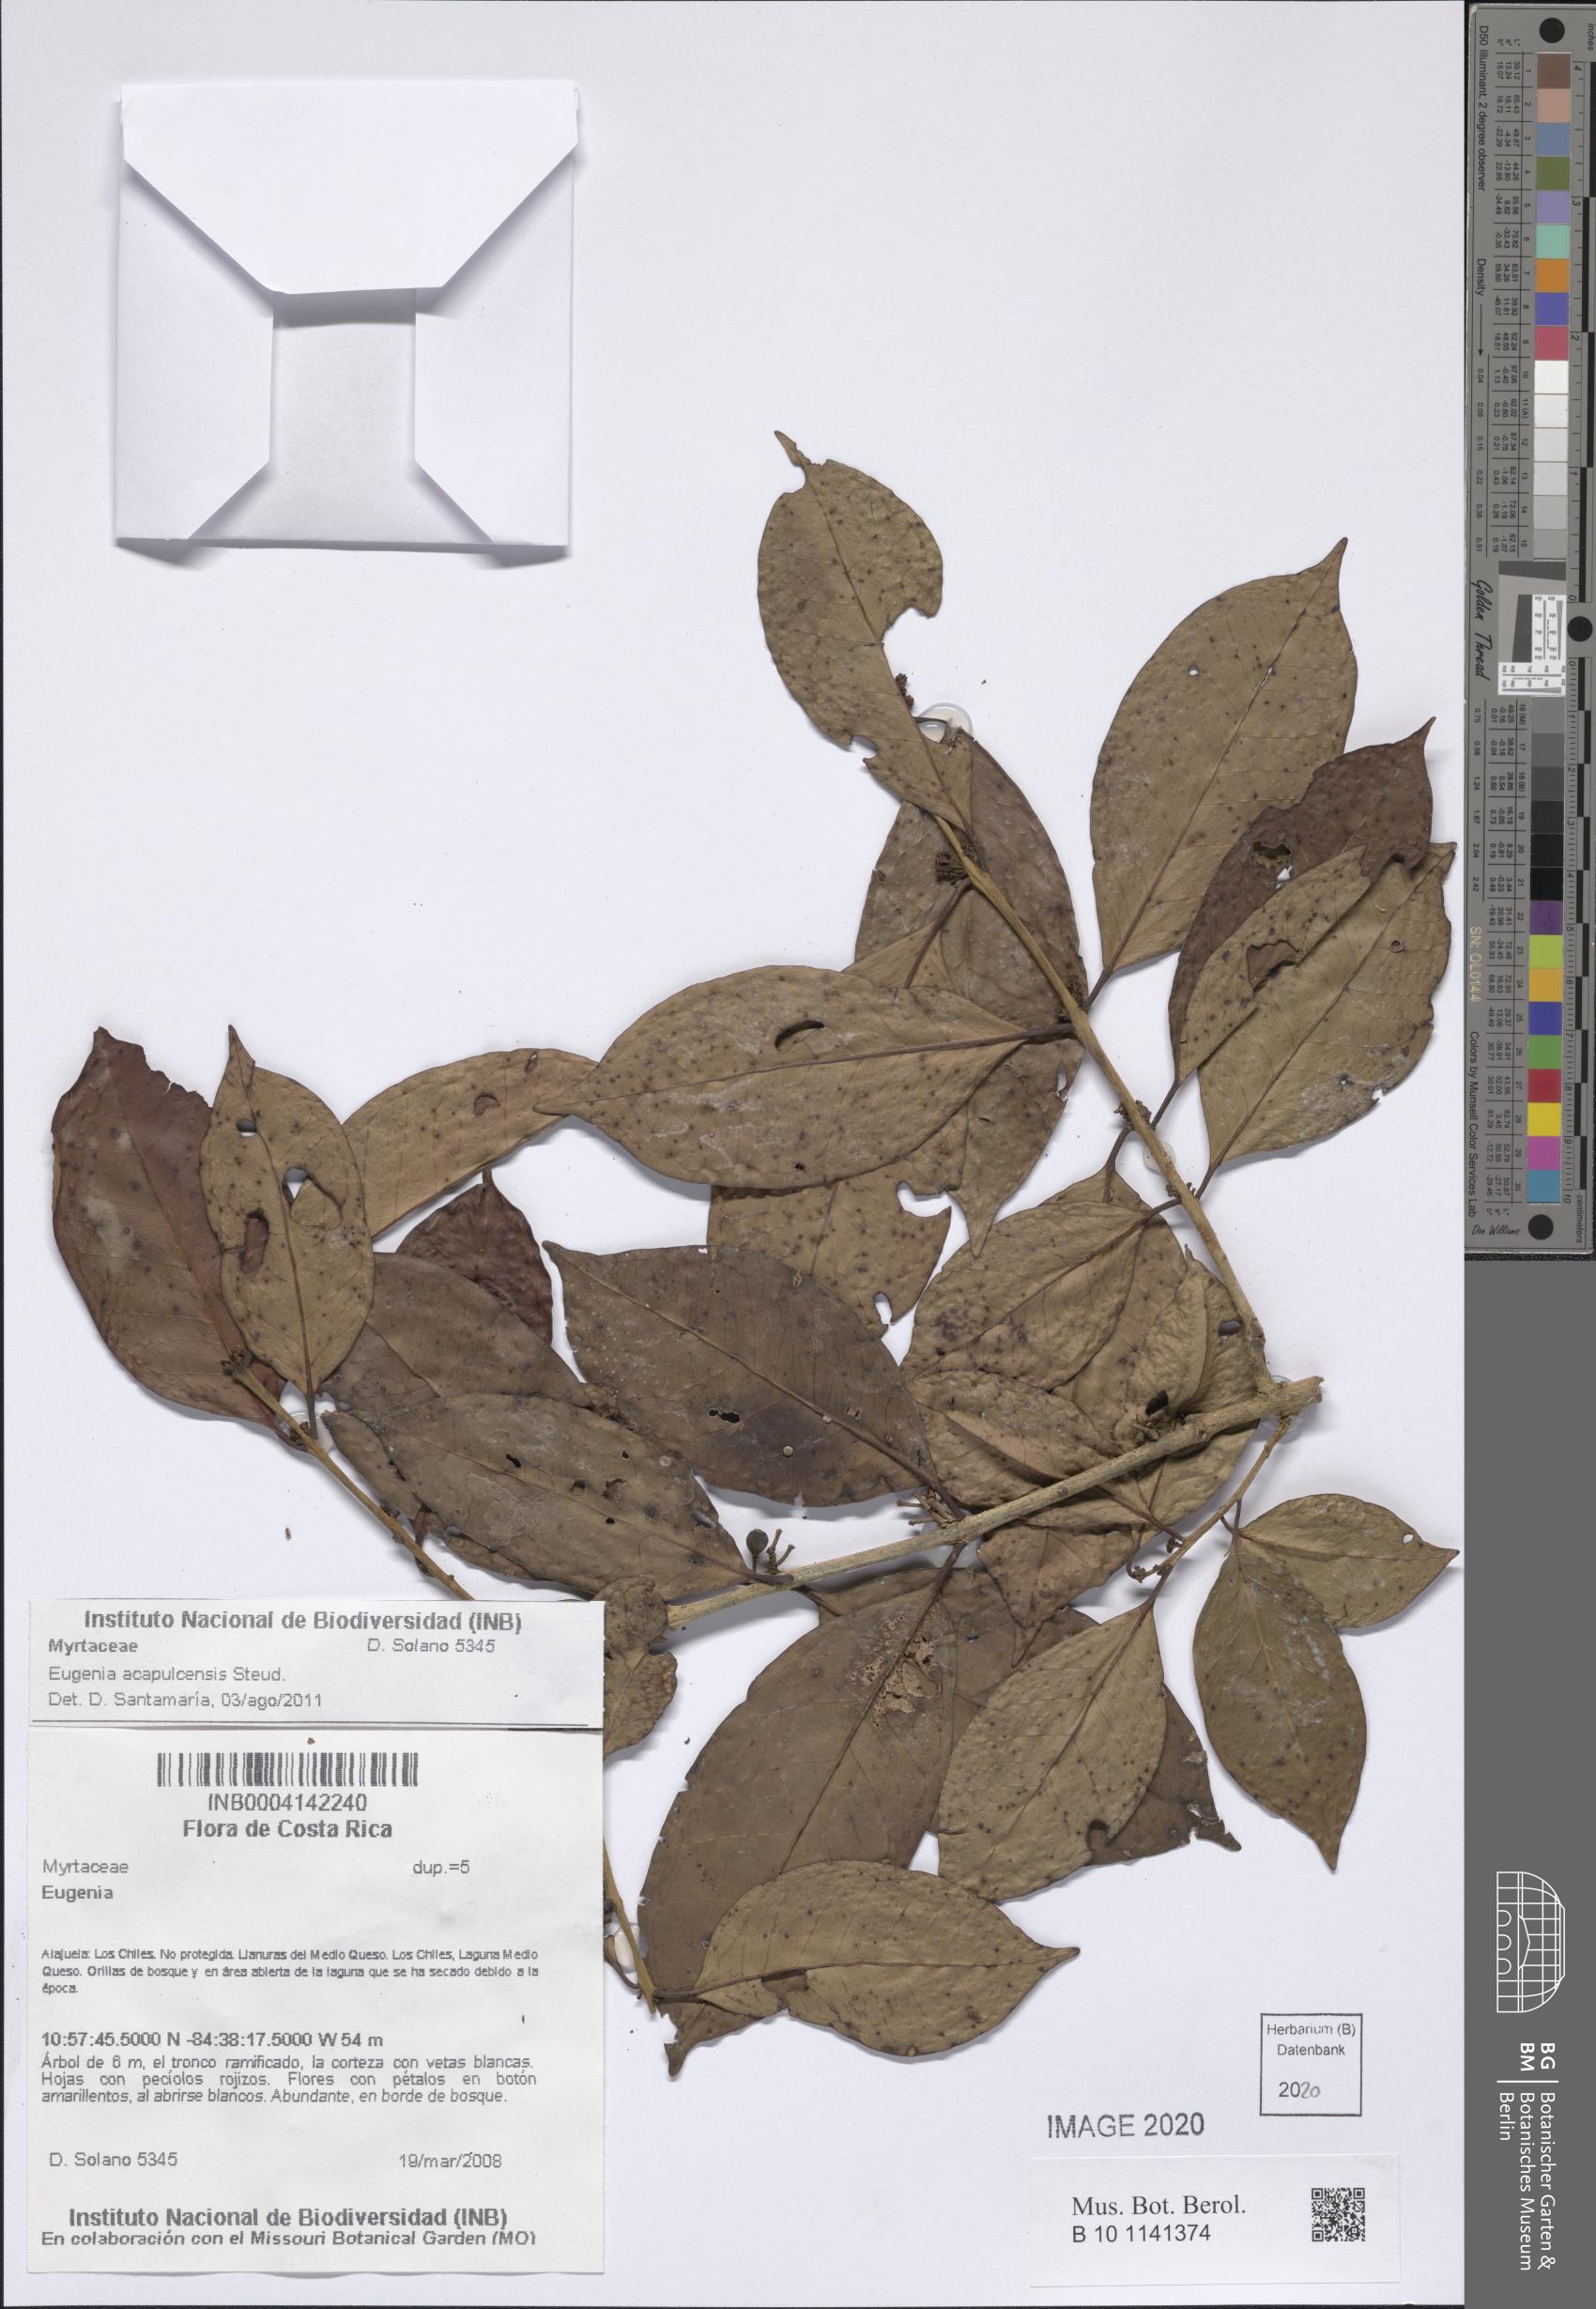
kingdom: Plantae
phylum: Tracheophyta
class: Magnoliopsida
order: Myrtales
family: Myrtaceae
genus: Eugenia
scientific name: Eugenia
